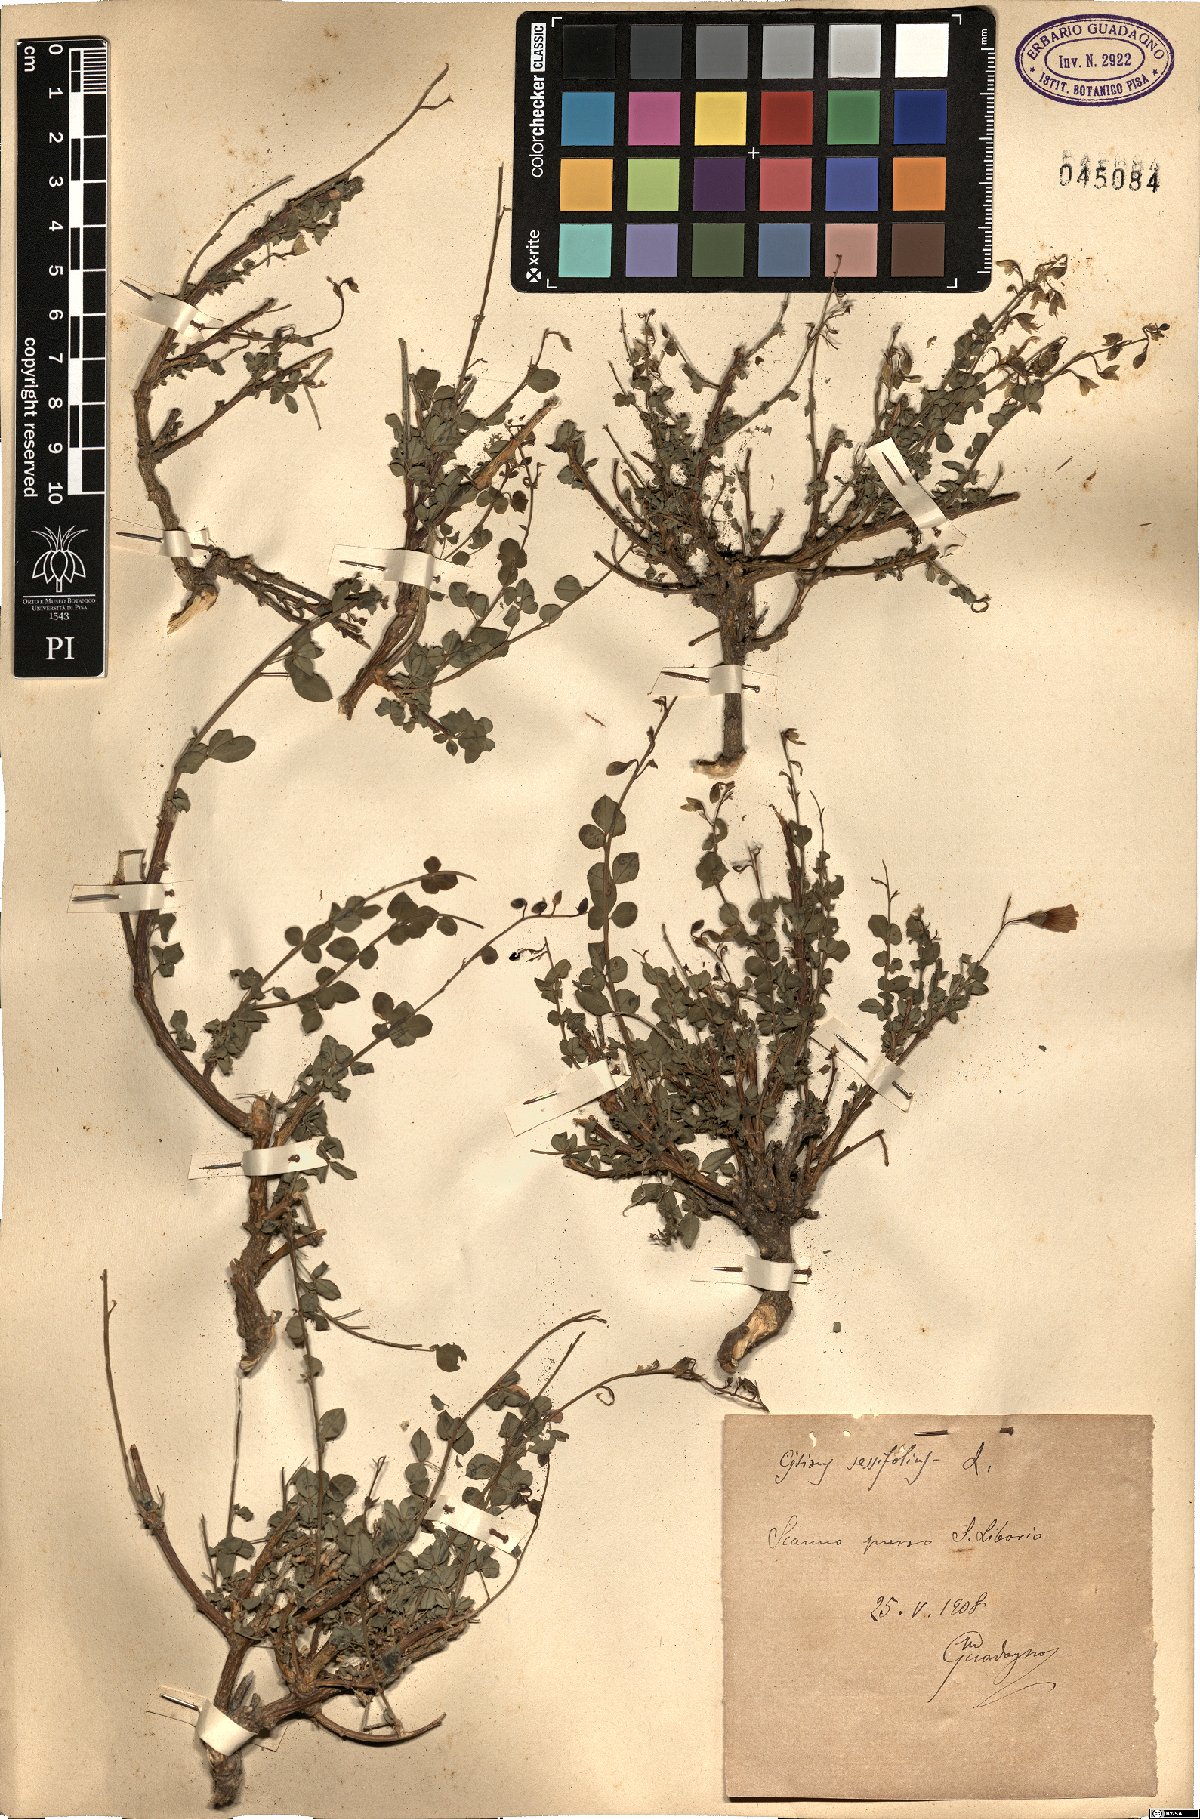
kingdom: Plantae
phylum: Tracheophyta
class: Magnoliopsida
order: Fabales
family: Fabaceae
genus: Cytisophyllum
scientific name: Cytisophyllum sessilifolium
